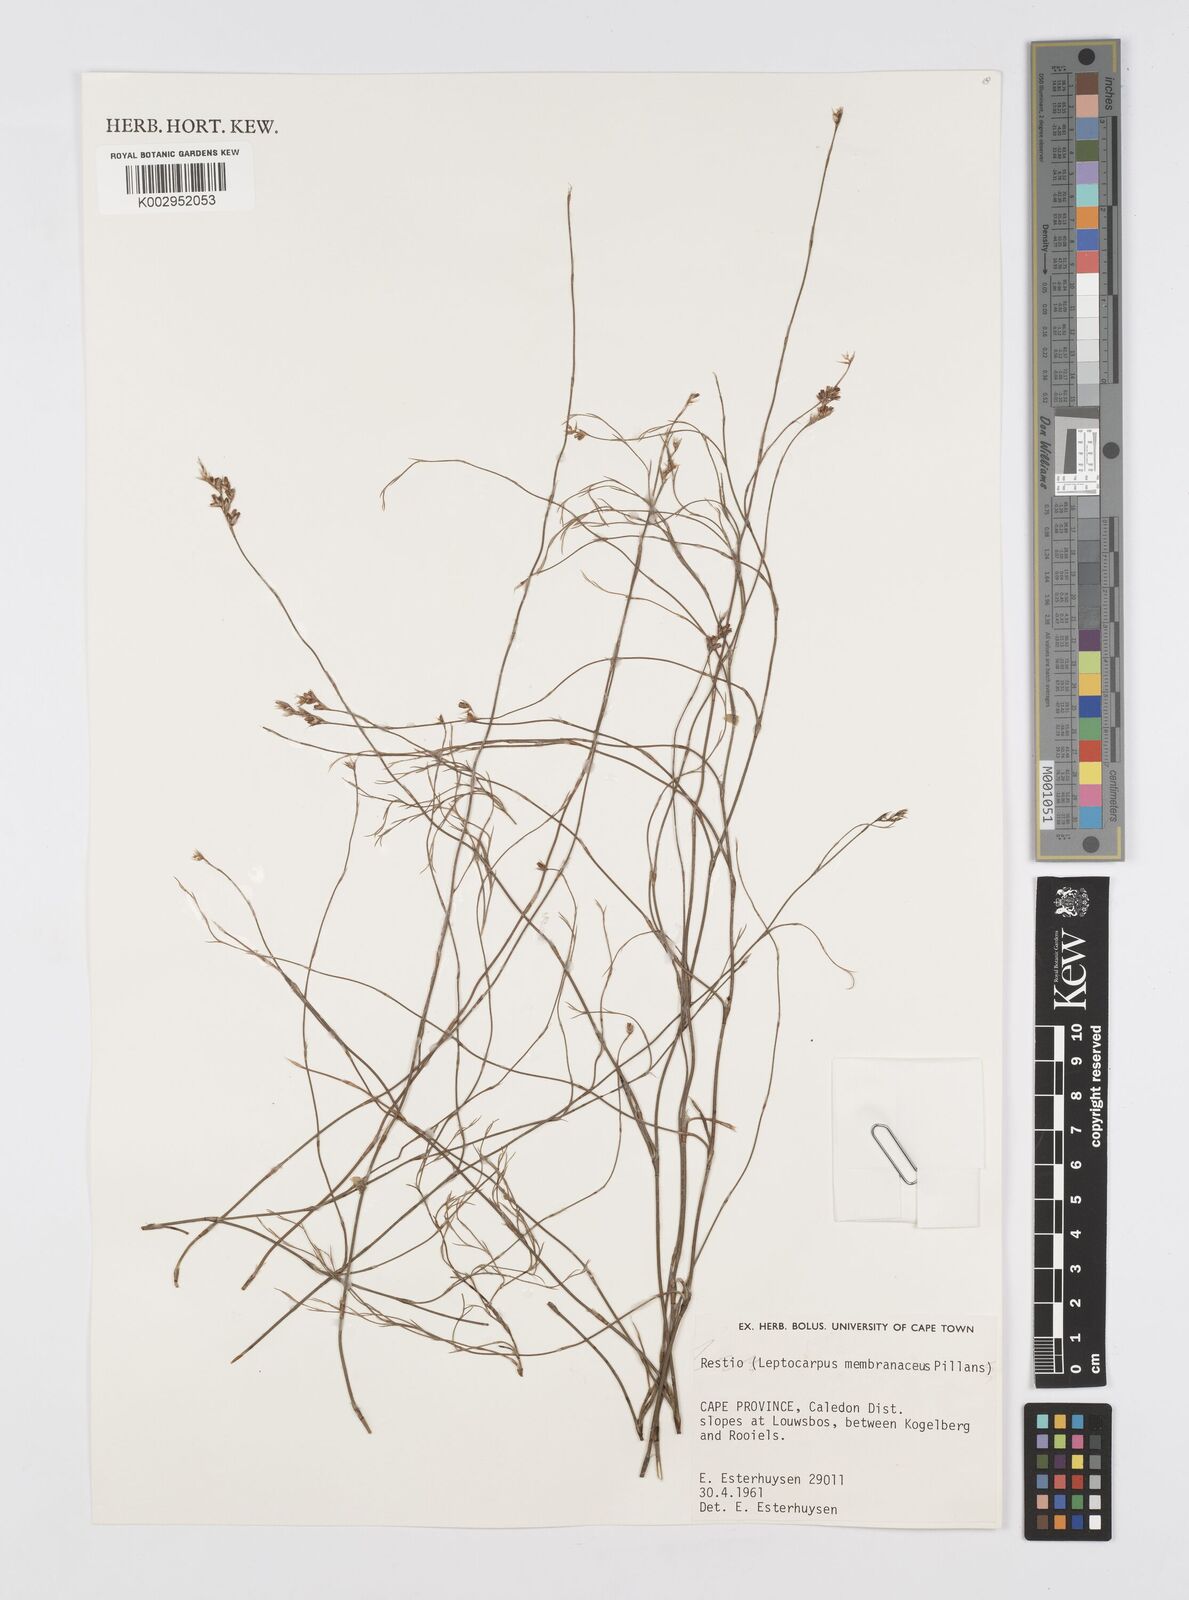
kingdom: Plantae
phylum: Tracheophyta
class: Liliopsida
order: Poales
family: Restionaceae
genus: Elegia
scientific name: Elegia intermedia
